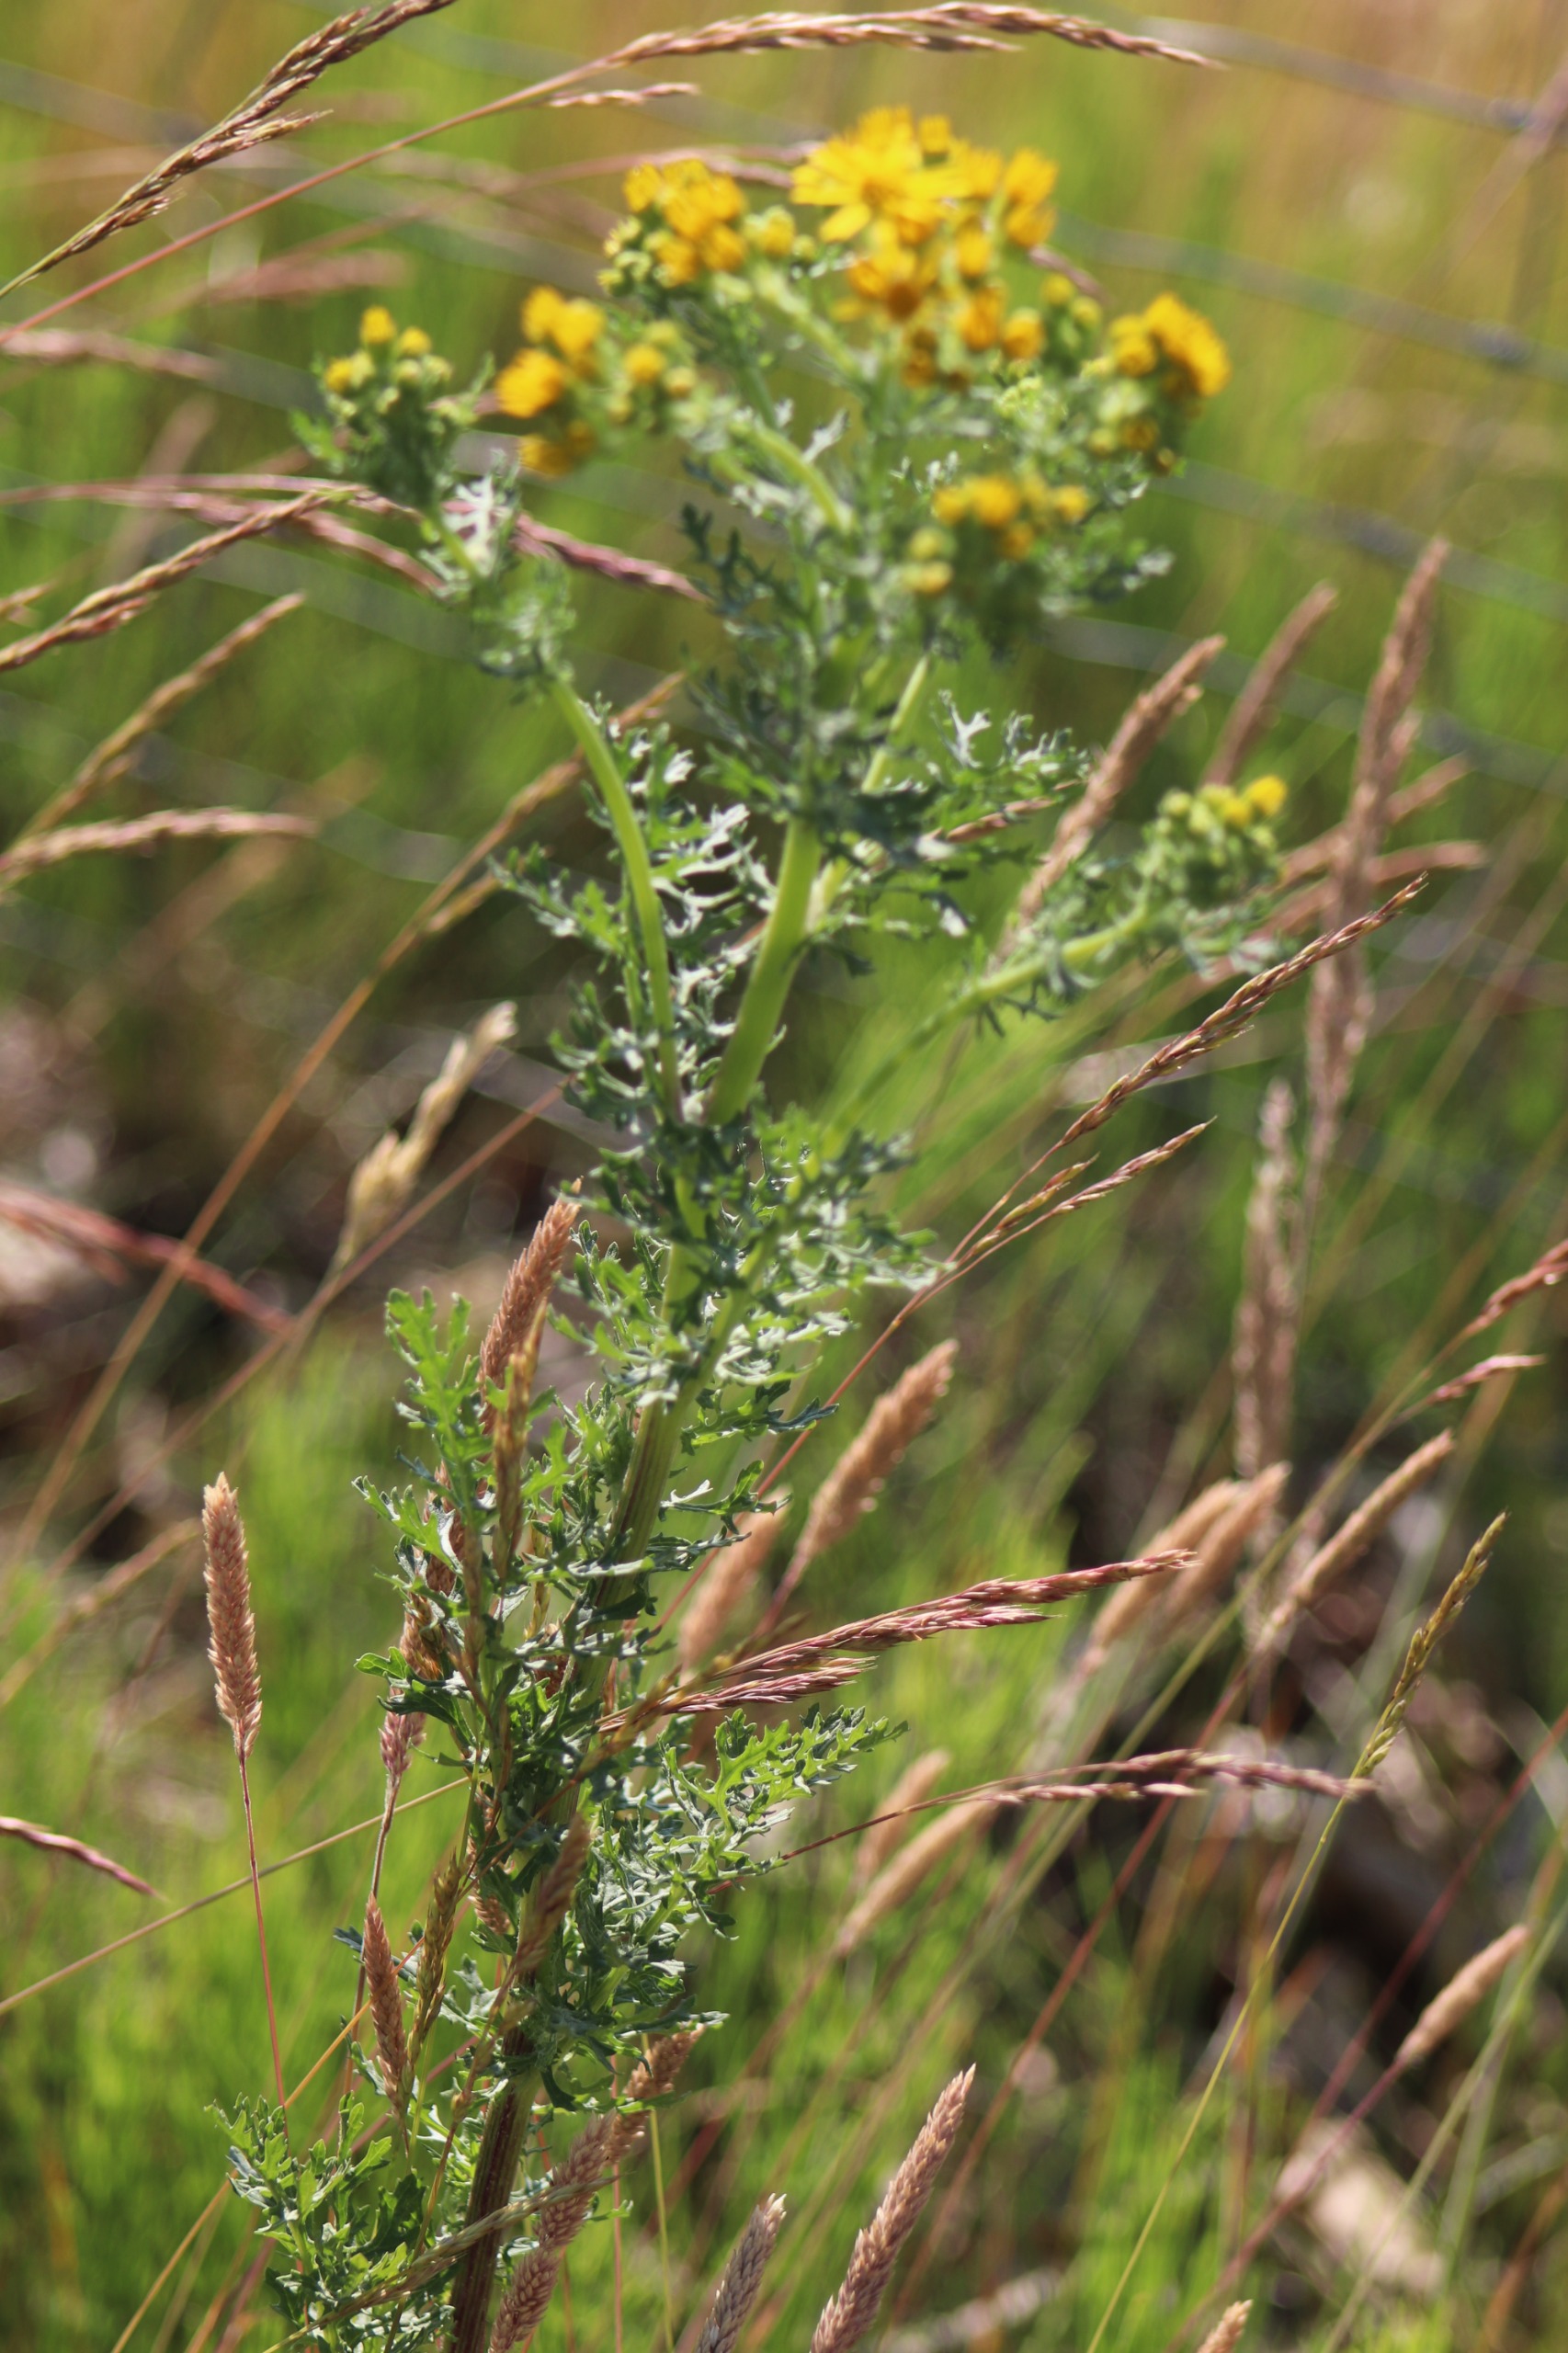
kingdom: Plantae
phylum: Tracheophyta
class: Magnoliopsida
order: Asterales
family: Asteraceae
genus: Jacobaea
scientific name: Jacobaea vulgaris
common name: Eng-brandbæger
